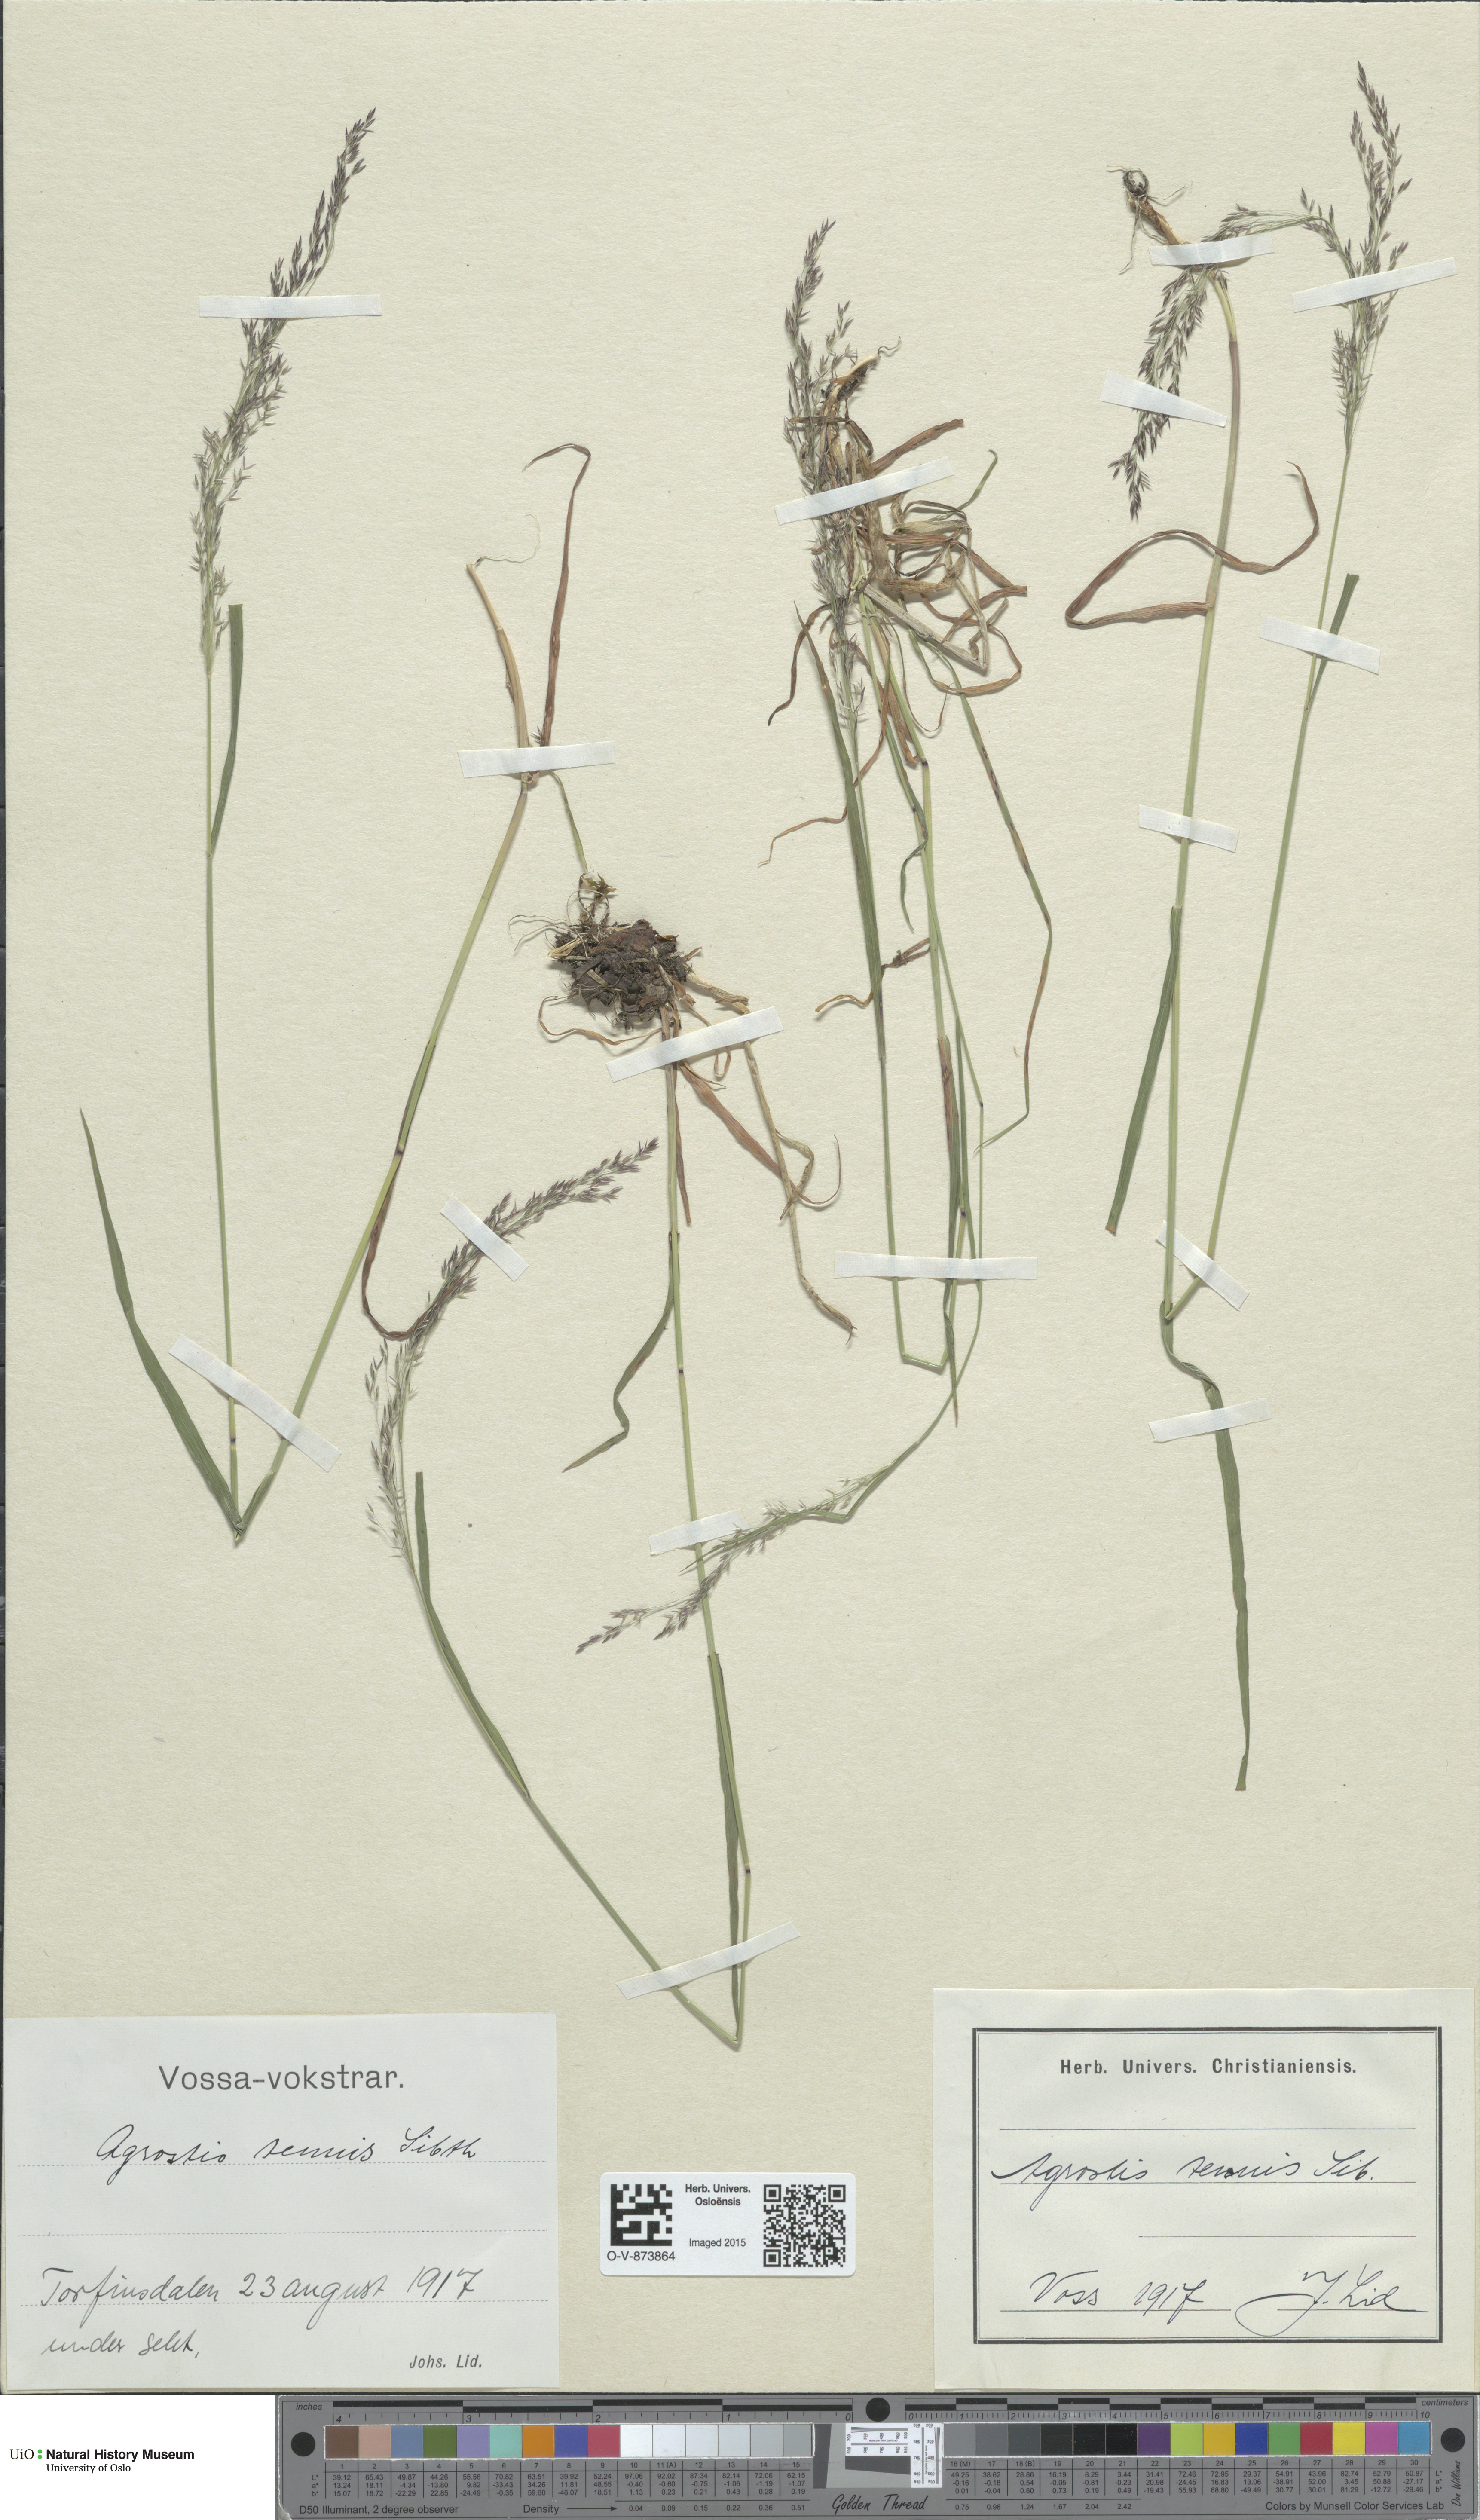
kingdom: Plantae
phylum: Tracheophyta
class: Liliopsida
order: Poales
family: Poaceae
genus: Agrostis
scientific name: Agrostis capillaris
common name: Colonial bentgrass
